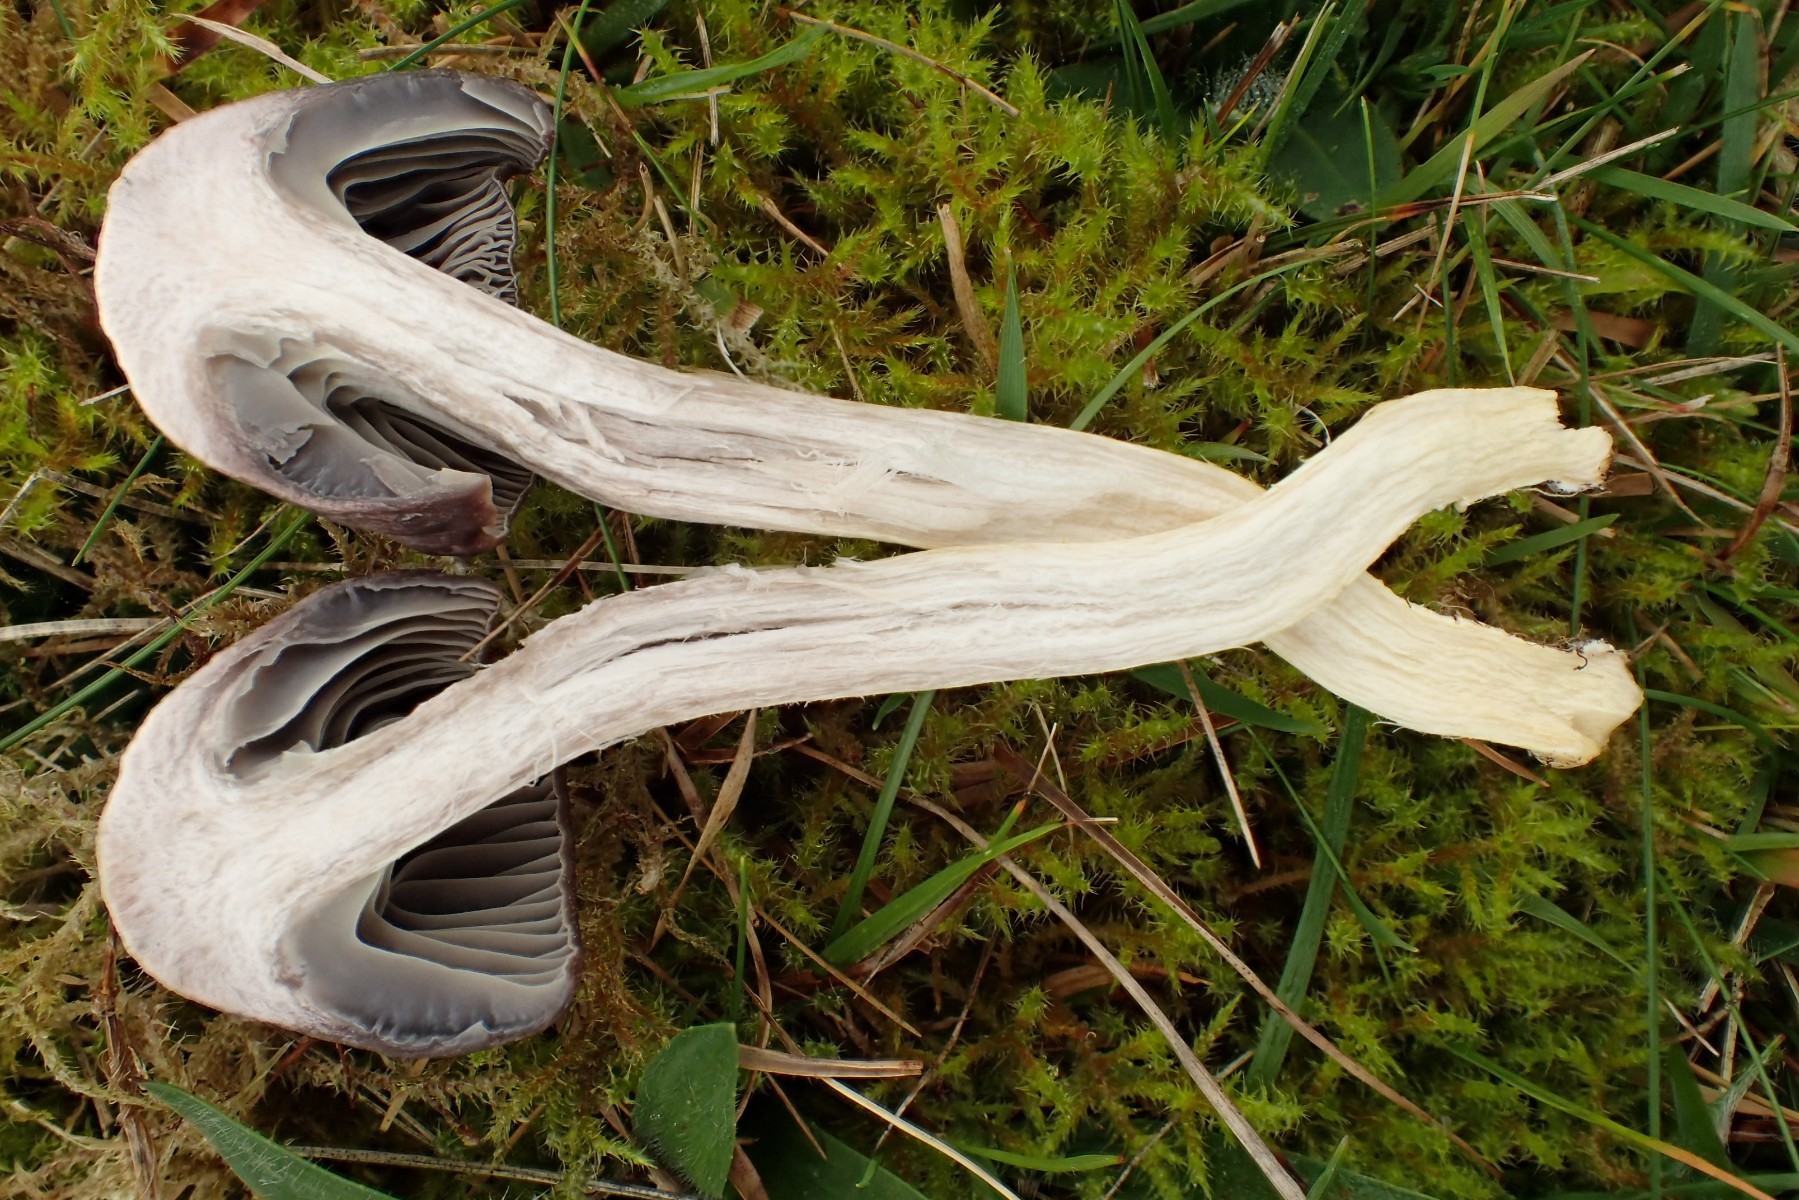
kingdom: Fungi
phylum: Basidiomycota
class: Agaricomycetes
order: Agaricales
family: Hygrophoraceae
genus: Cuphophyllus
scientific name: Cuphophyllus flavipes
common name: gulfodet vokshat
